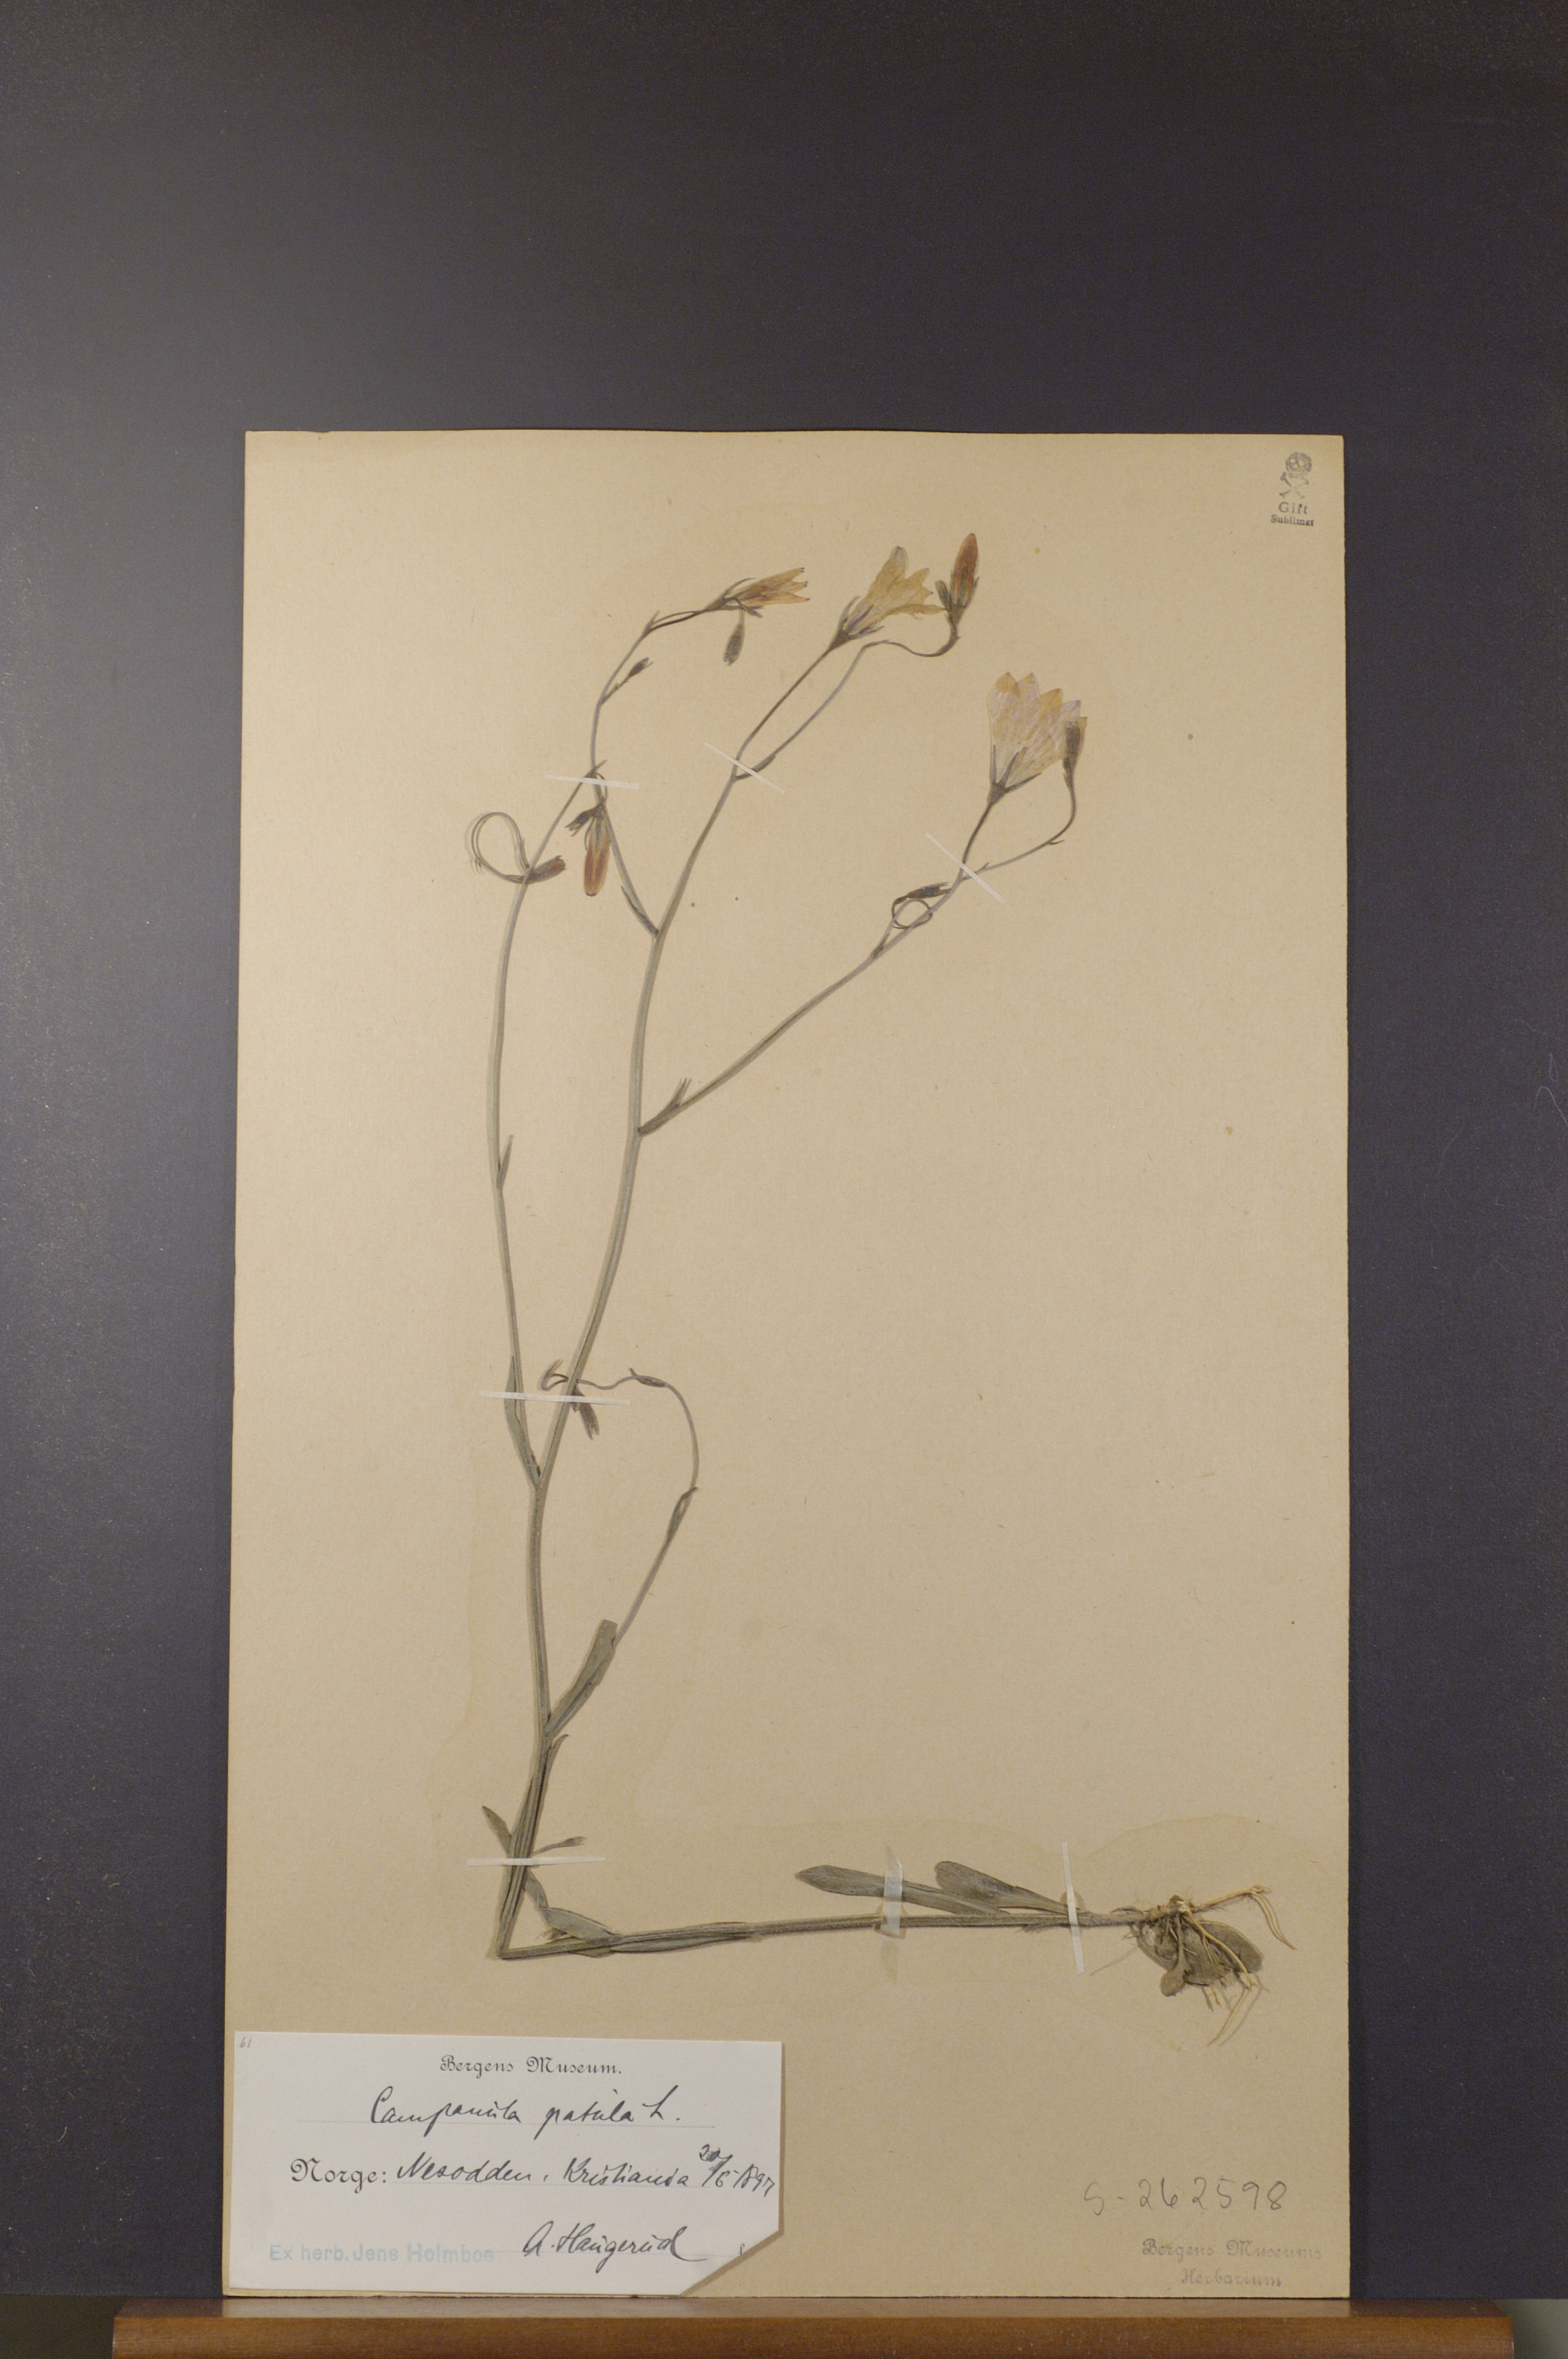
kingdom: Plantae
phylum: Tracheophyta
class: Magnoliopsida
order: Asterales
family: Campanulaceae
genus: Campanula
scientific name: Campanula patula
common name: Spreading bellflower
